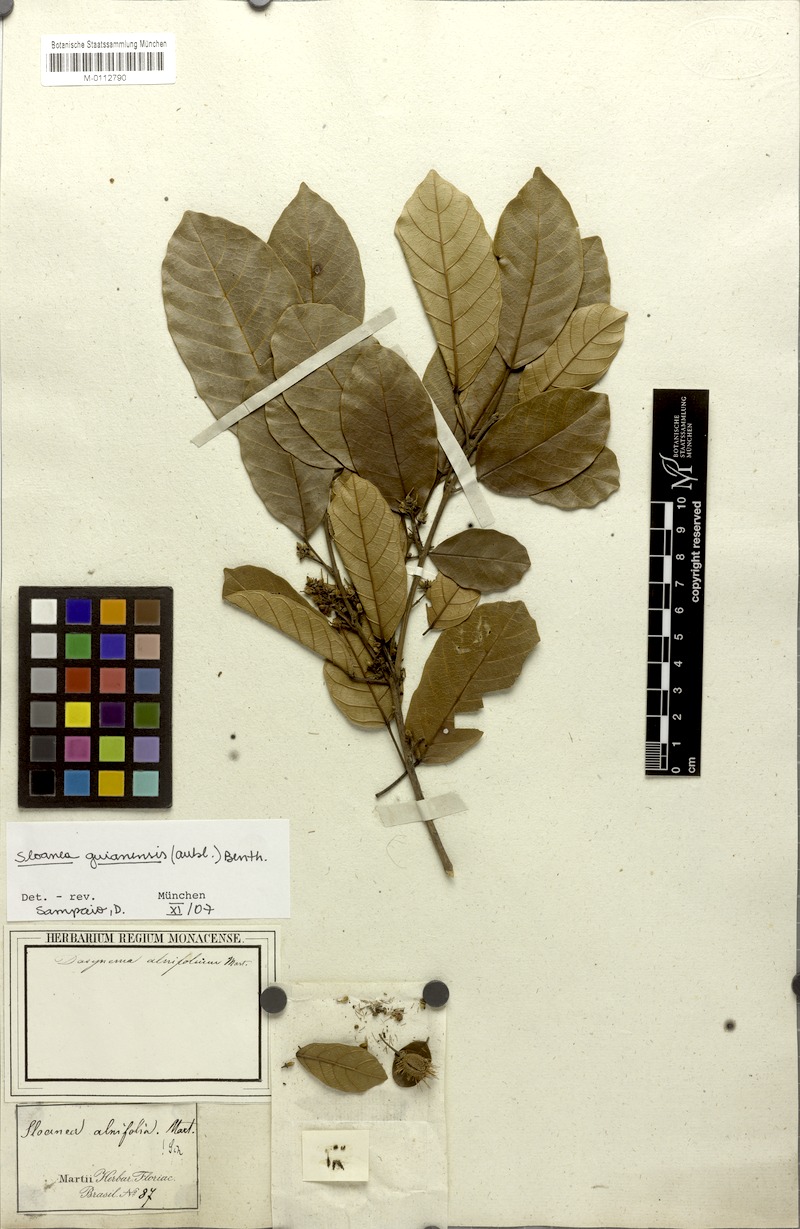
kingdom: Plantae
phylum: Tracheophyta
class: Magnoliopsida
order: Oxalidales
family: Elaeocarpaceae
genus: Sloanea
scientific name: Sloanea guianensis
